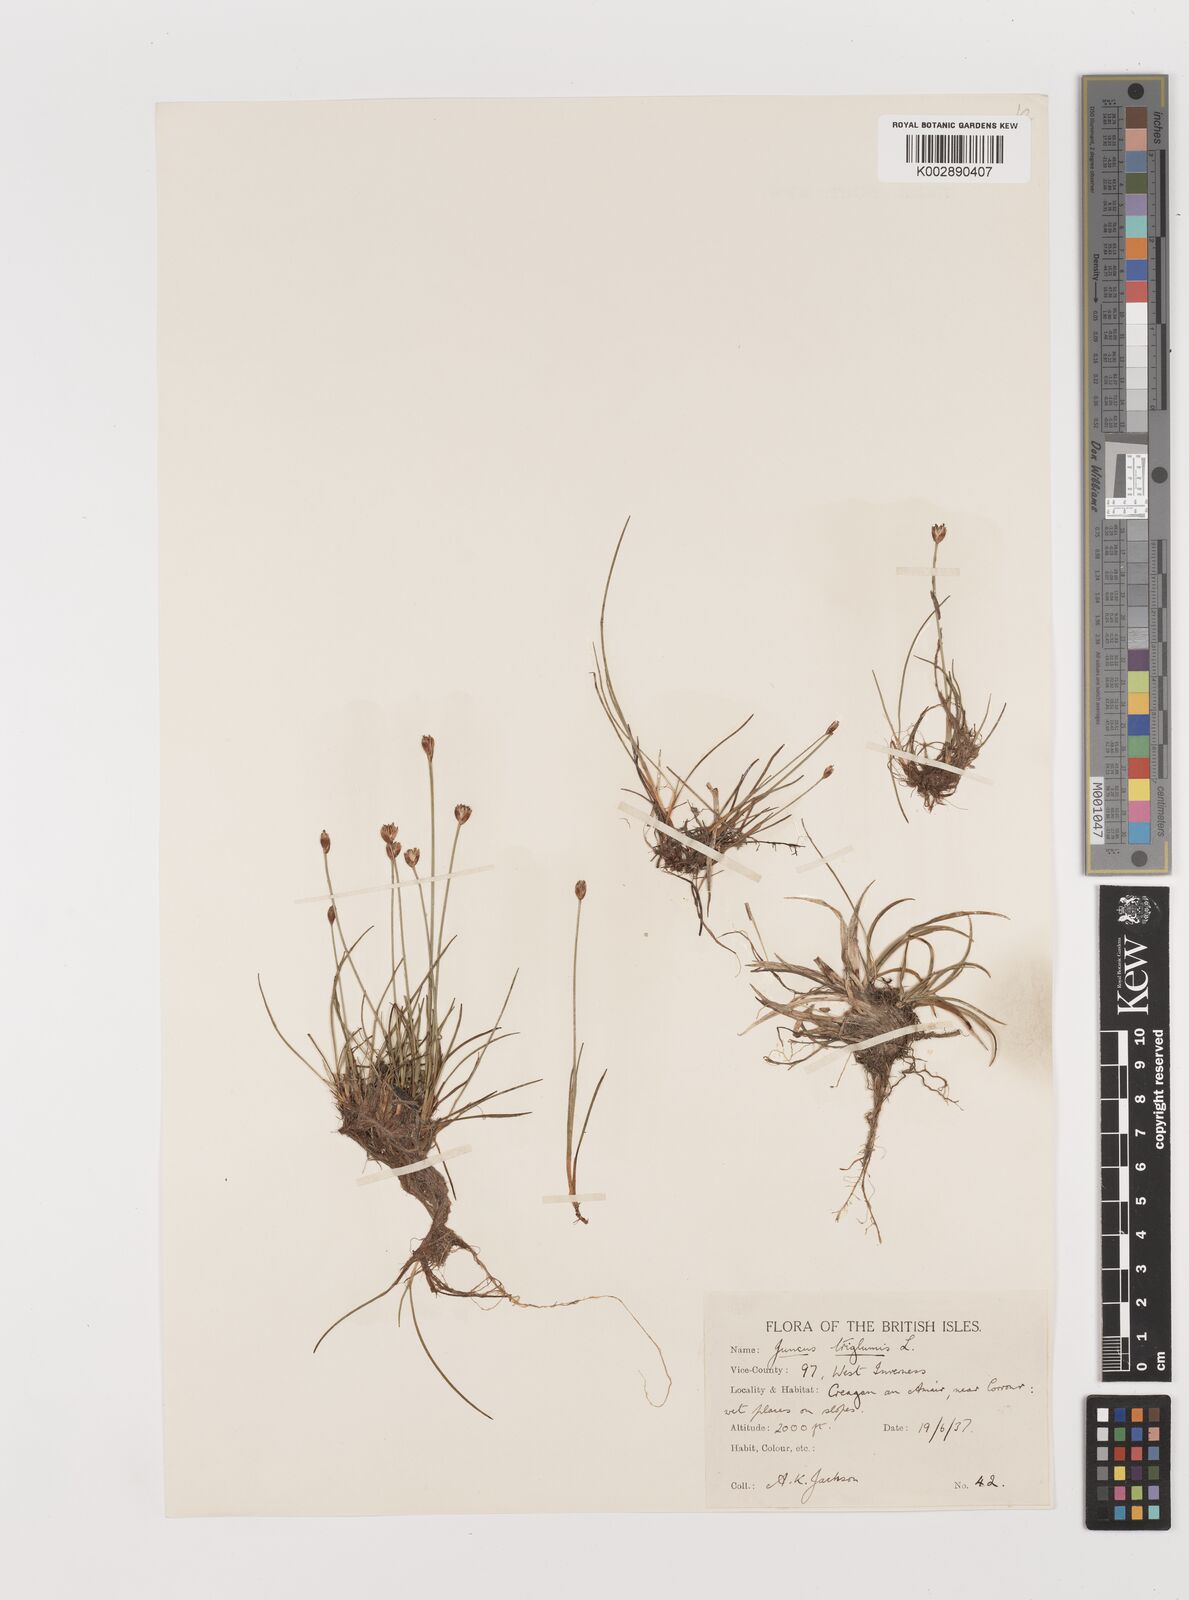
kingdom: Plantae
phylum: Tracheophyta
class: Liliopsida
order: Poales
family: Juncaceae
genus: Juncus
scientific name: Juncus triglumis
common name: Three-flowered rush
